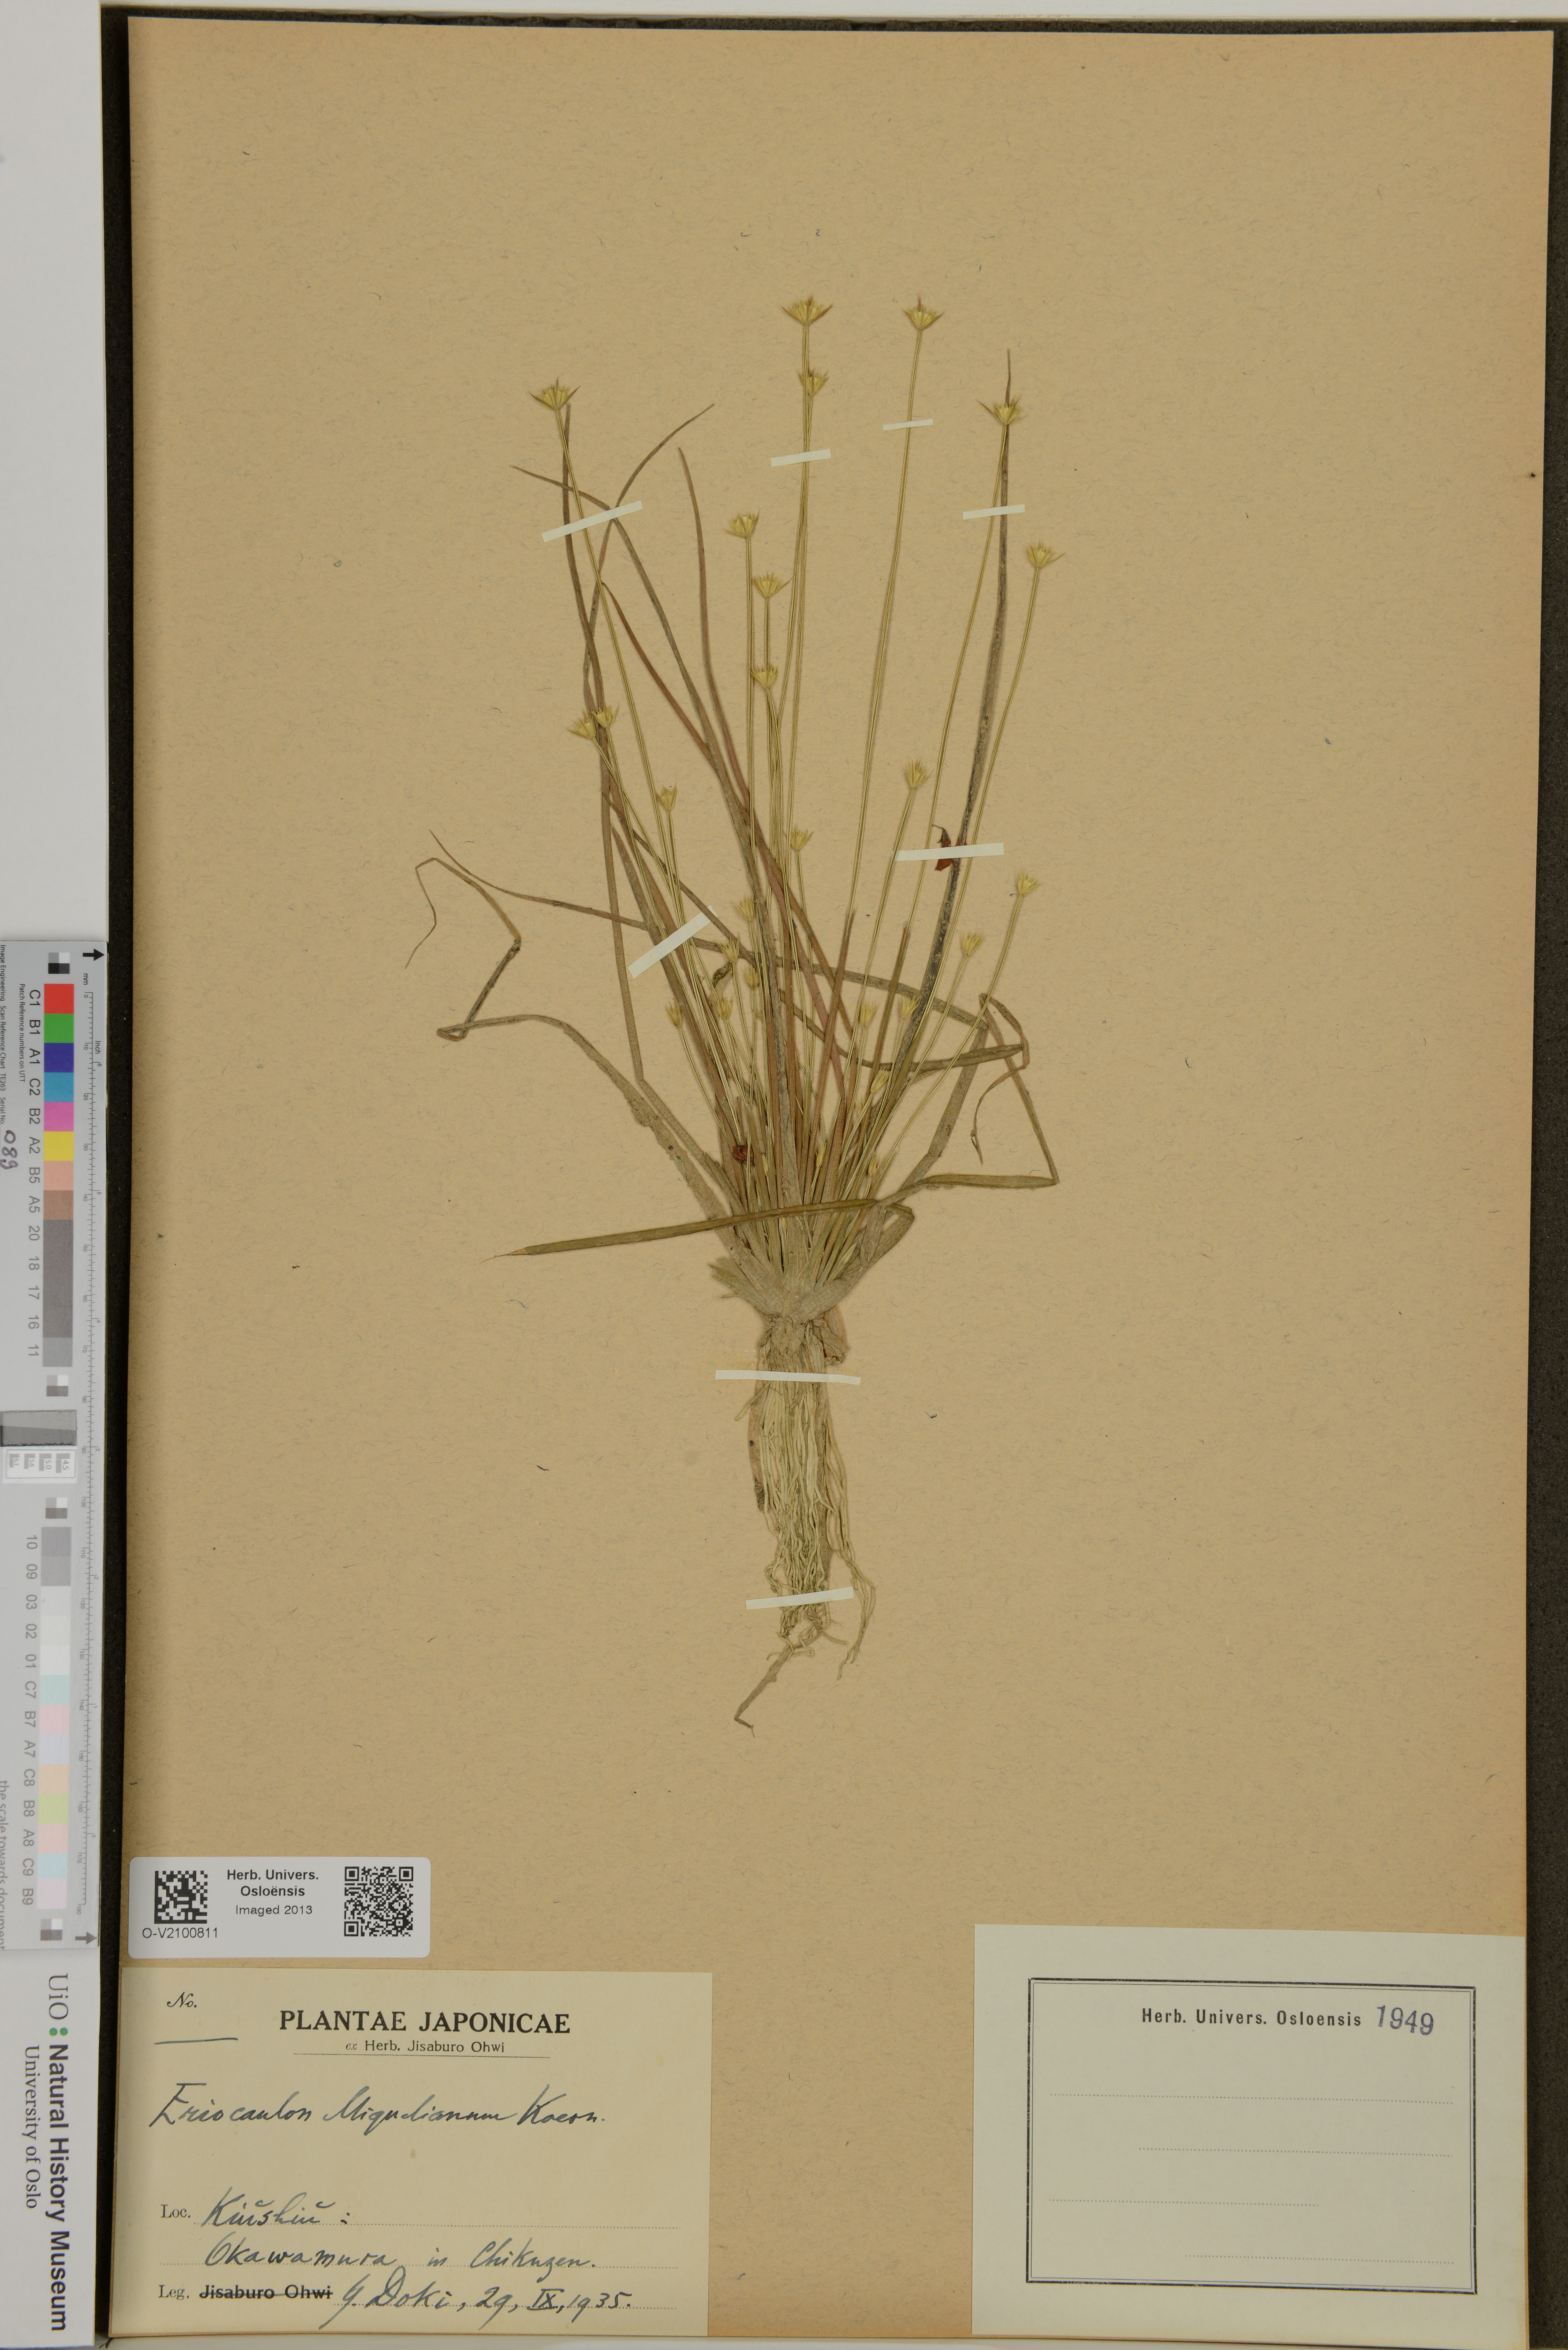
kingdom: Plantae
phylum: Tracheophyta
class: Liliopsida
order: Poales
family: Eriocaulaceae
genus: Eriocaulon
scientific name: Eriocaulon miquelianum
